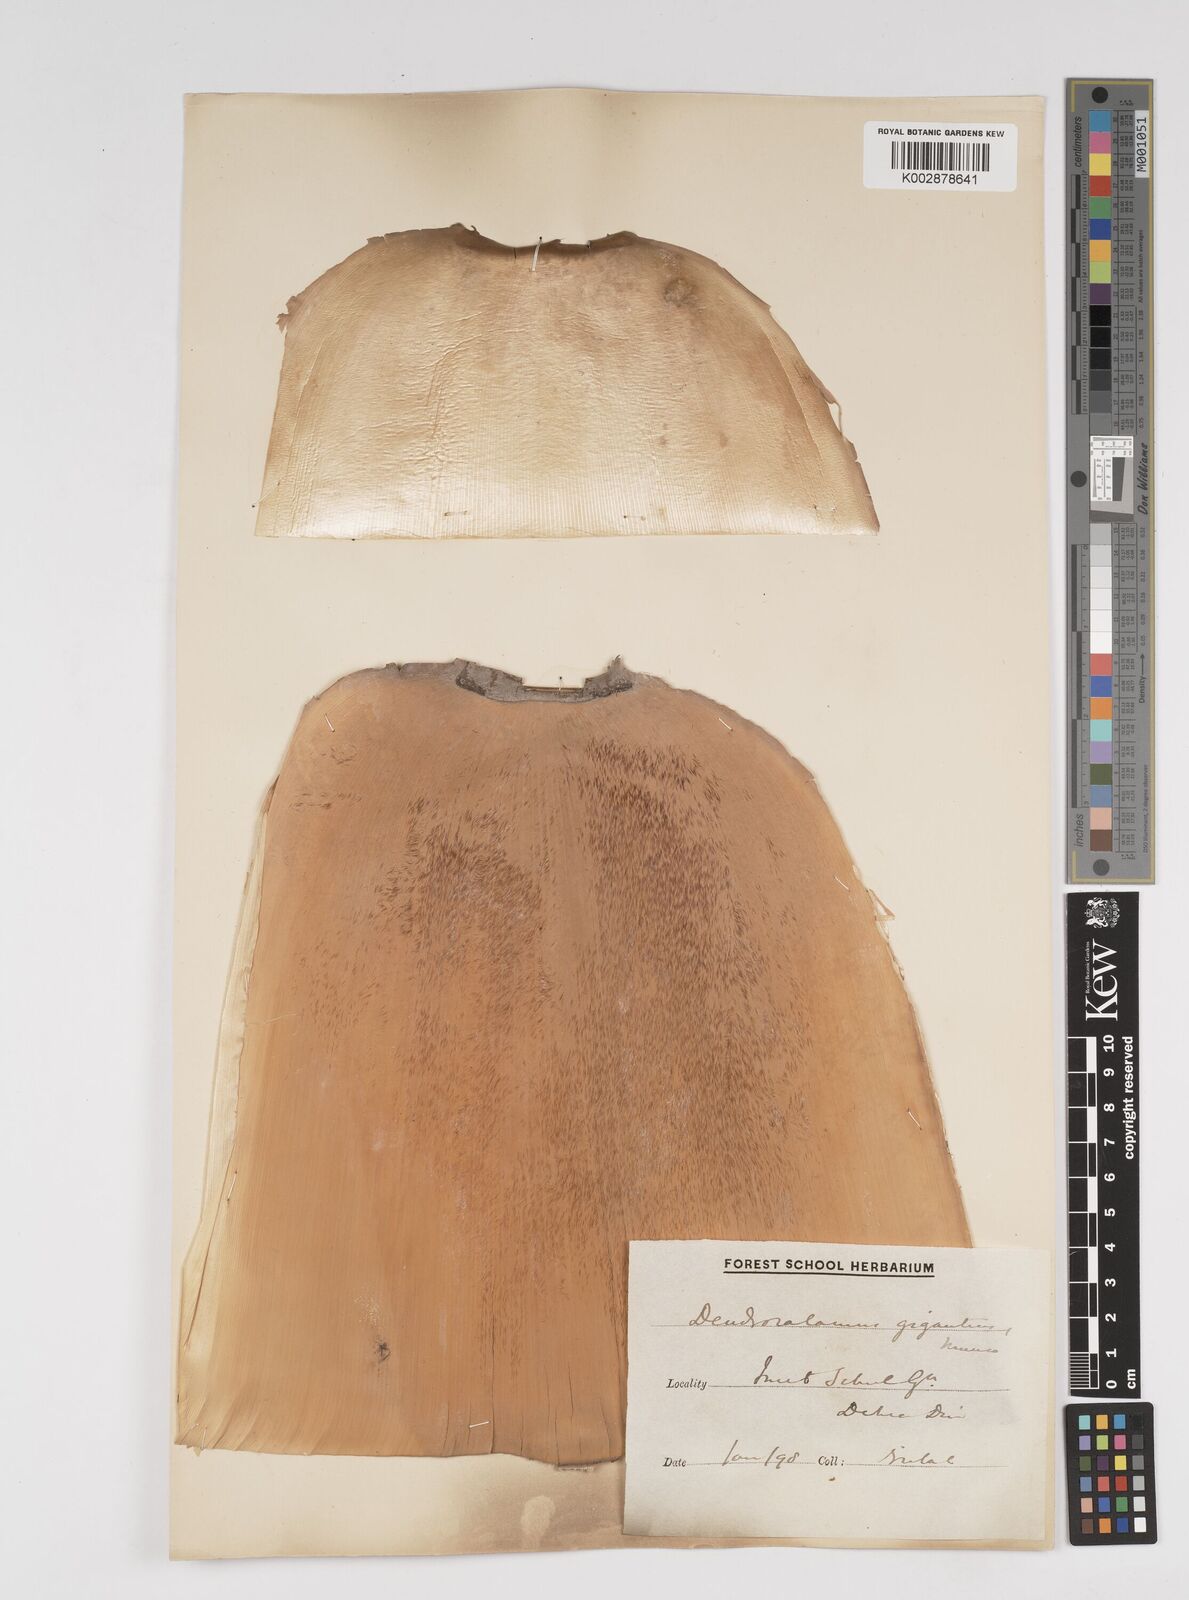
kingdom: Plantae
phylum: Tracheophyta
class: Liliopsida
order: Poales
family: Poaceae
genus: Dendrocalamus
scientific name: Dendrocalamus giganteus
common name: Giant bamboo
